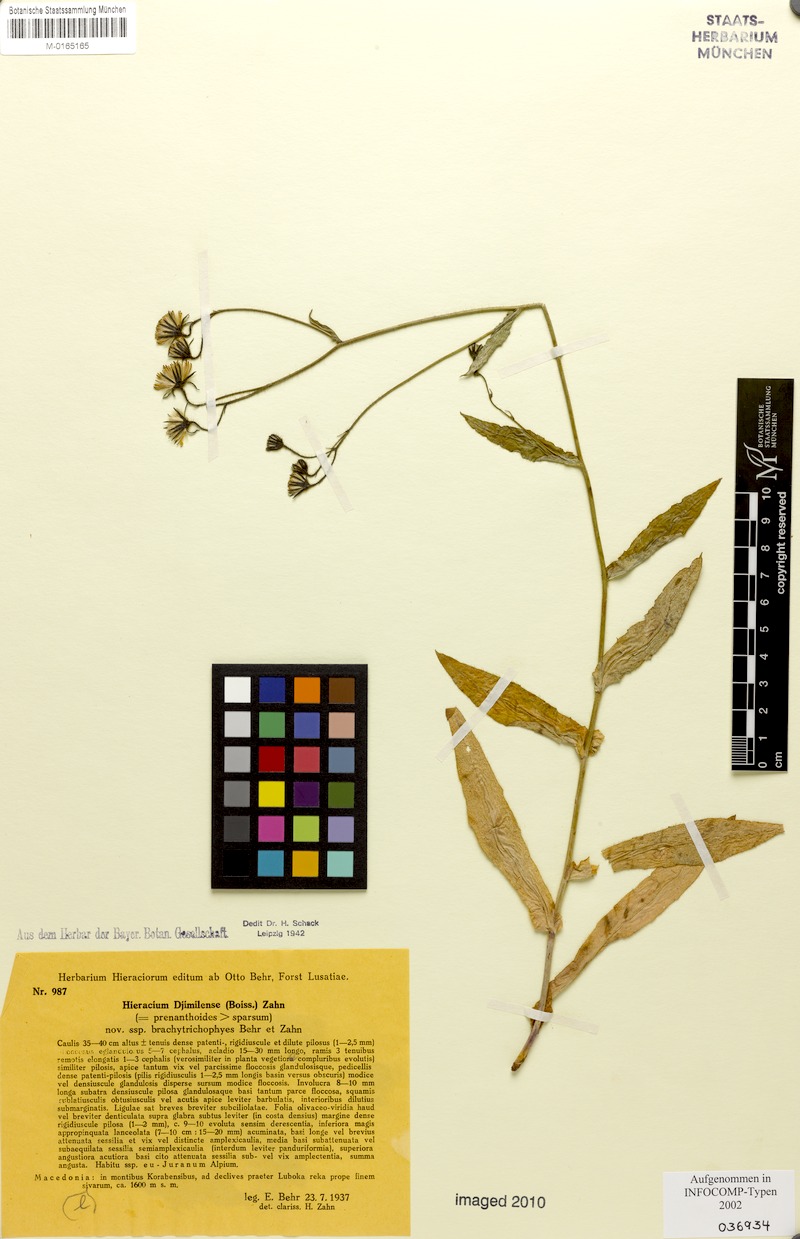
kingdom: Plantae
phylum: Tracheophyta
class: Magnoliopsida
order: Asterales
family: Asteraceae
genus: Hieracium
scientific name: Hieracium djimilense
